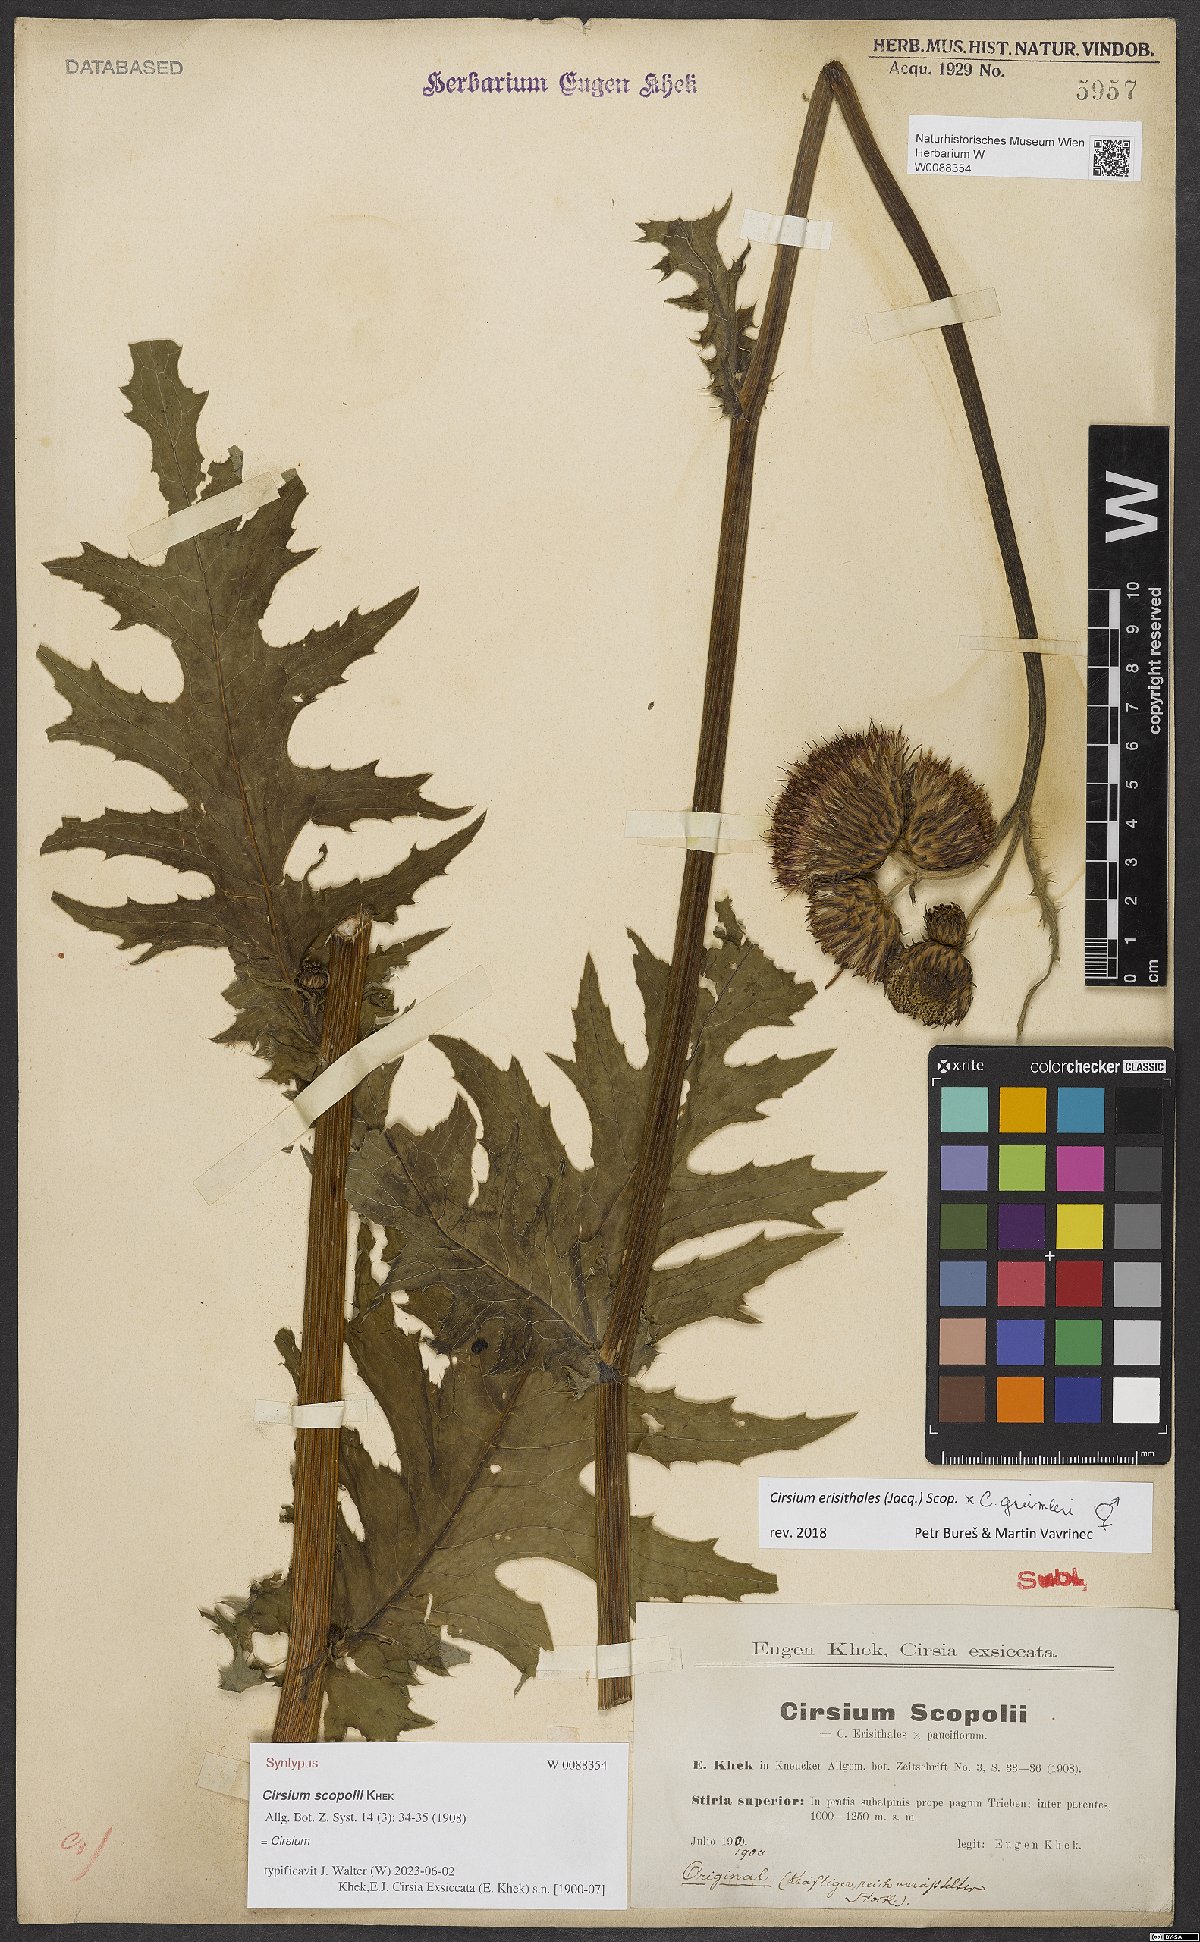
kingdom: Plantae
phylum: Tracheophyta
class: Magnoliopsida
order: Asterales
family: Asteraceae
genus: Cirsium
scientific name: Cirsium scopolii
